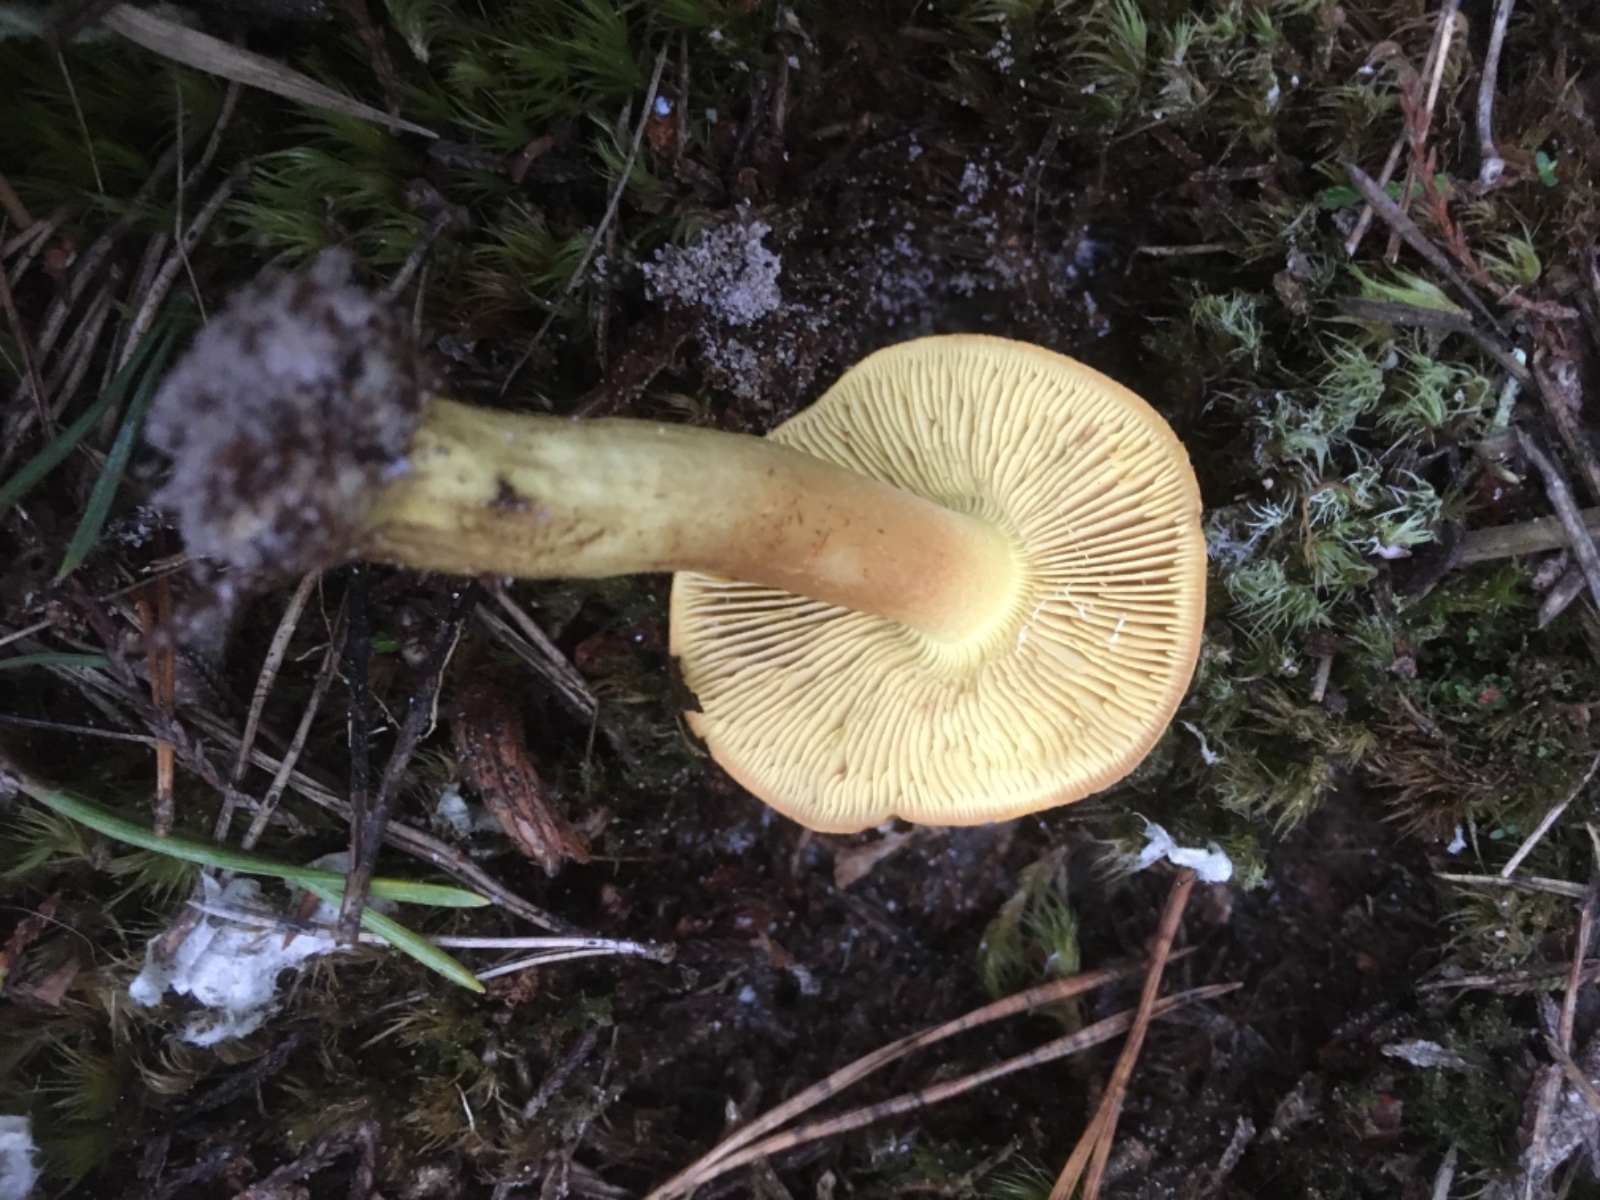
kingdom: Fungi
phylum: Basidiomycota
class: Agaricomycetes
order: Agaricales
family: Tricholomataceae
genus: Tricholoma
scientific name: Tricholoma equestre
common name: ægte ridderhat
